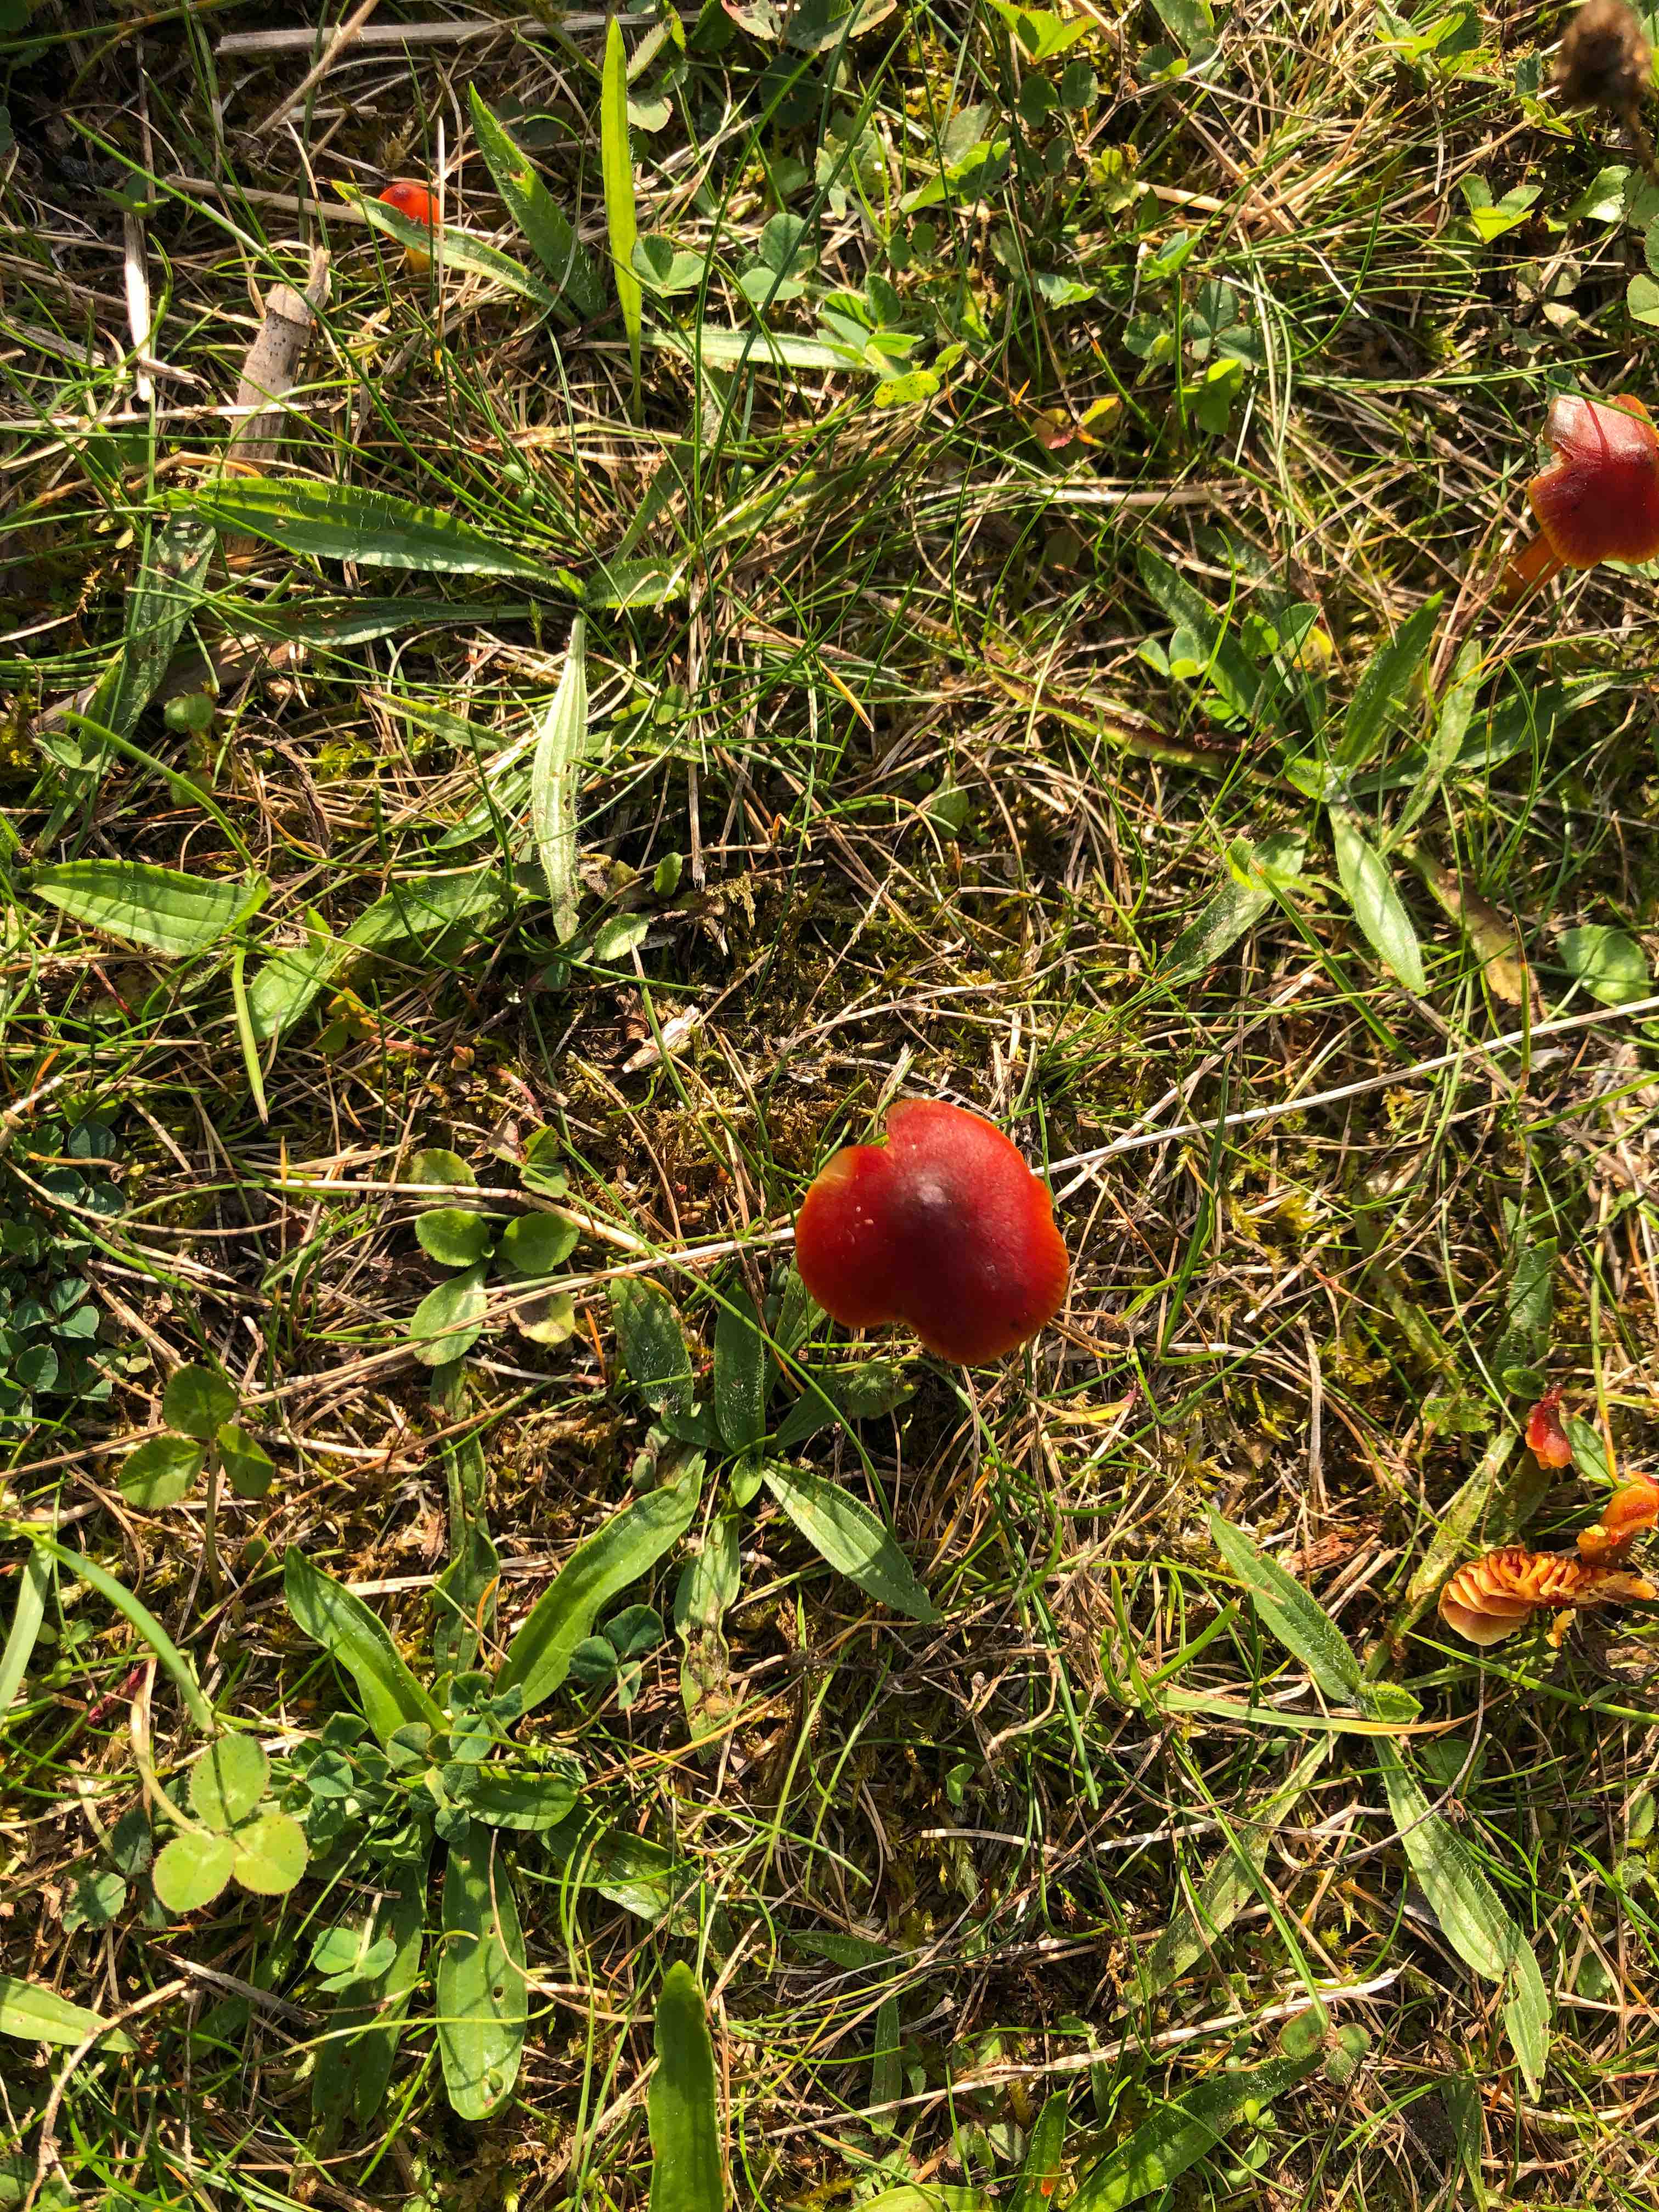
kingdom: Fungi
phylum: Basidiomycota
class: Agaricomycetes
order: Agaricales
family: Hygrophoraceae
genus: Hygrocybe
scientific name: Hygrocybe conica
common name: kegle-vokshat
